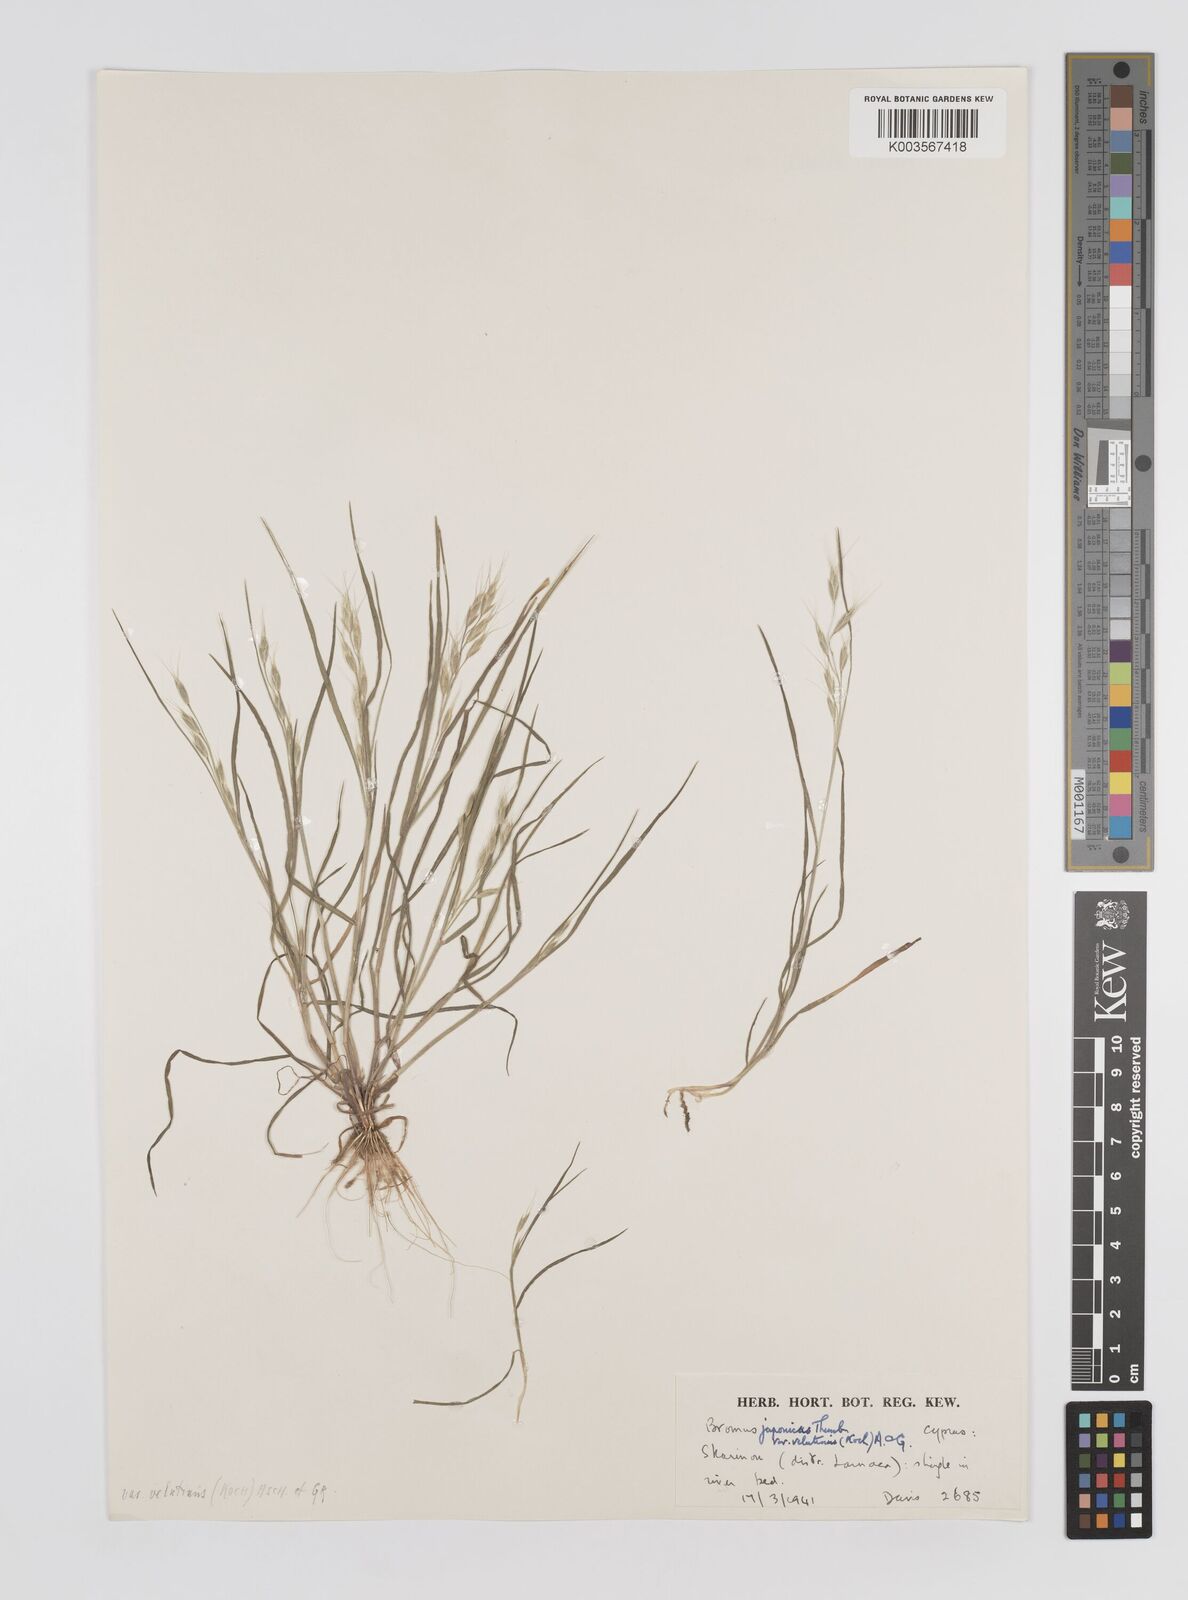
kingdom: Plantae
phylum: Tracheophyta
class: Liliopsida
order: Poales
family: Poaceae
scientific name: Poaceae
